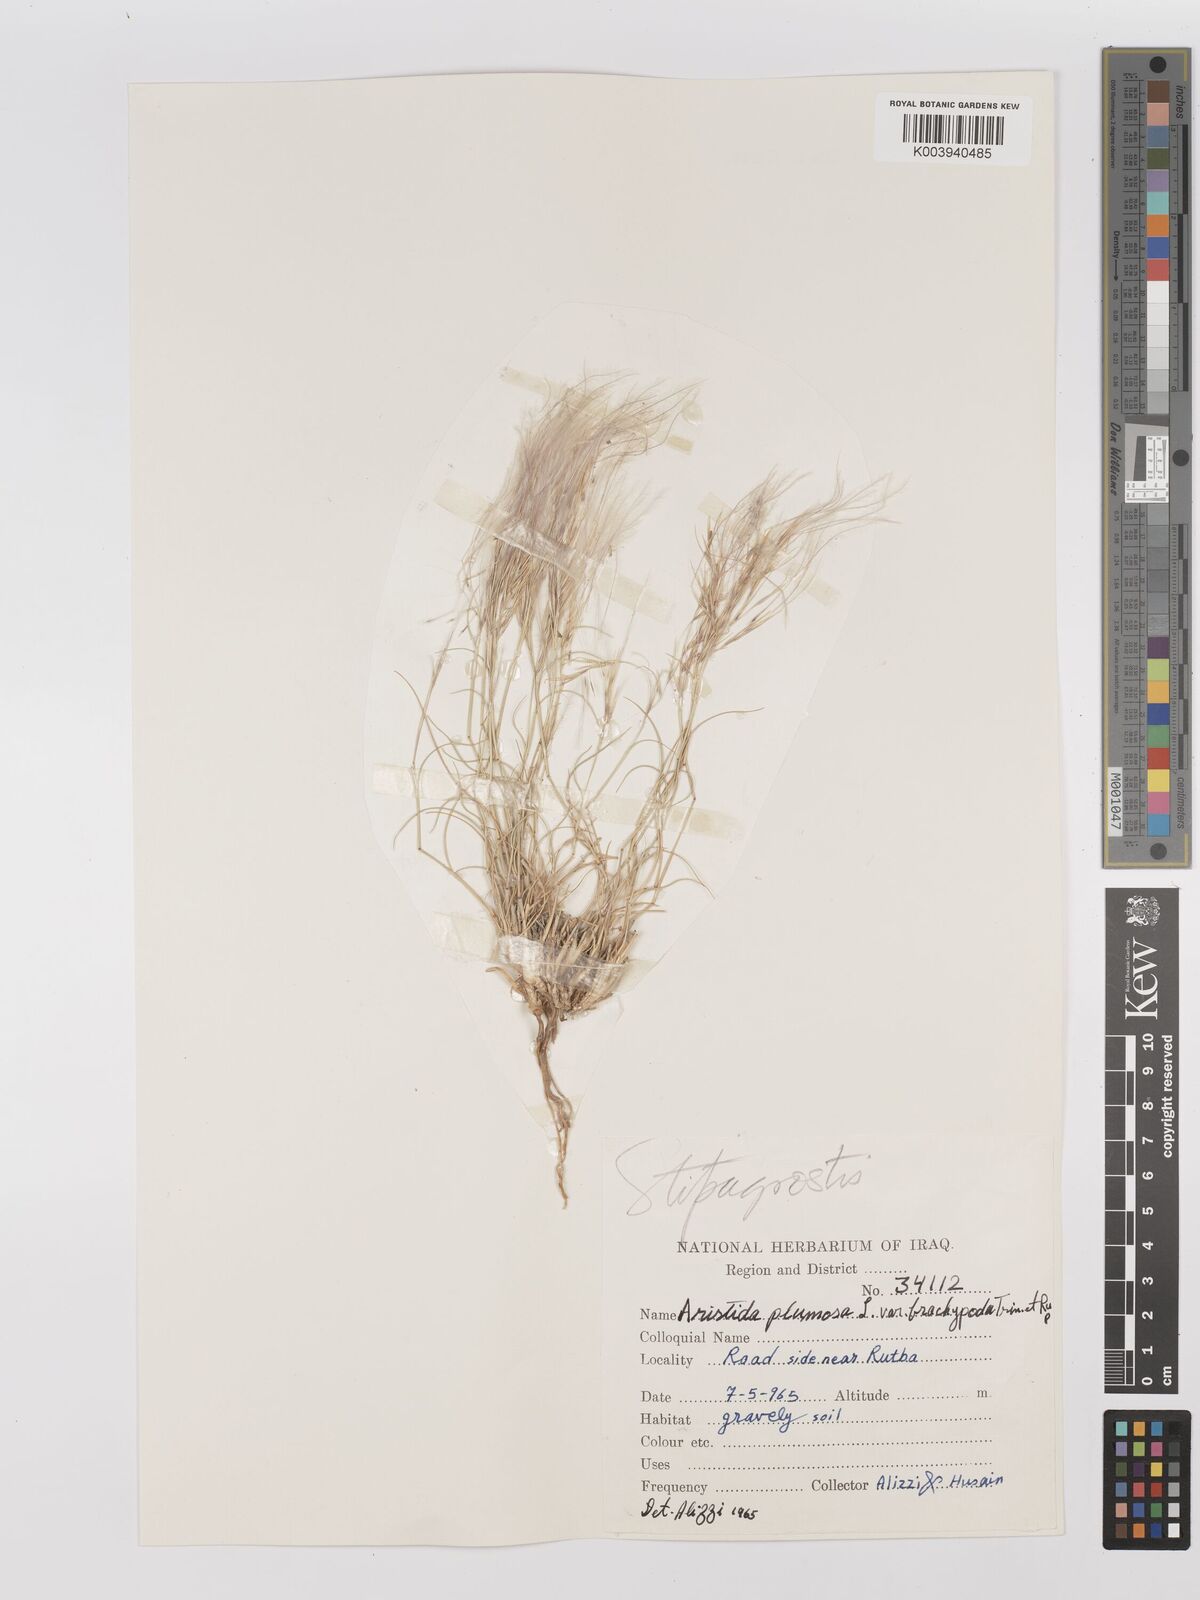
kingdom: Plantae
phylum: Tracheophyta
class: Liliopsida
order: Poales
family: Poaceae
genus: Stipagrostis
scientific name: Stipagrostis plumosa
